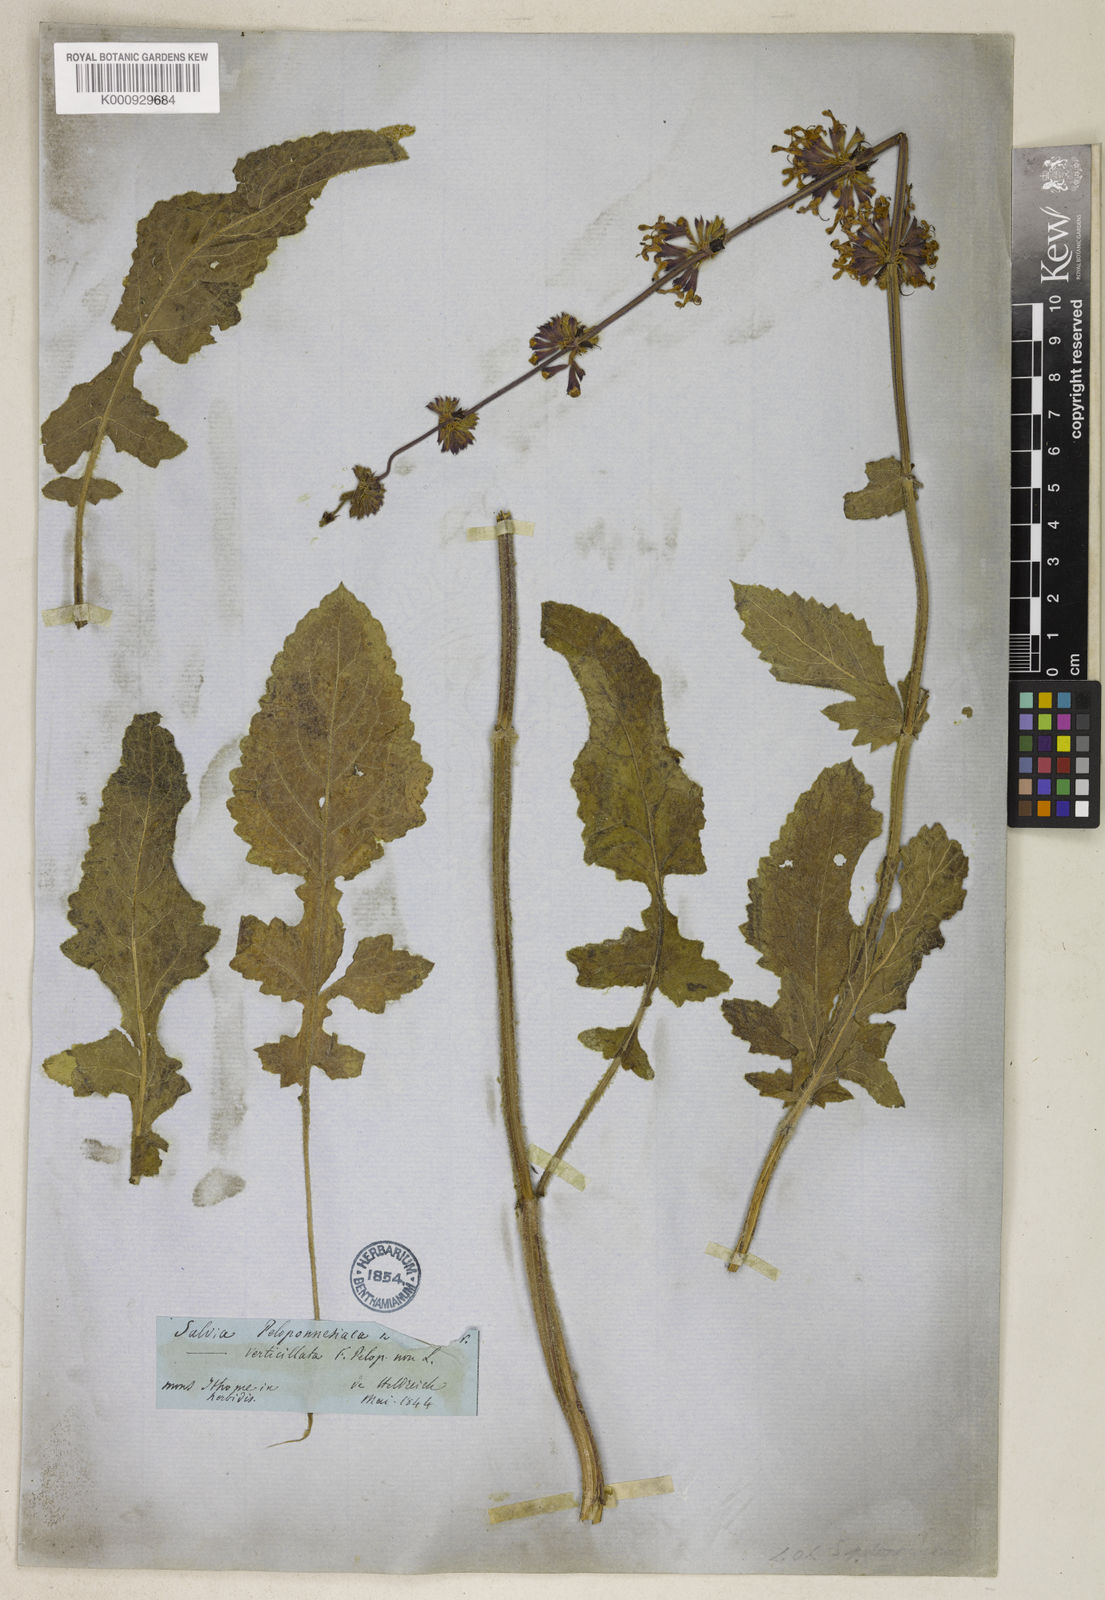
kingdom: Plantae
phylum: Tracheophyta
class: Magnoliopsida
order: Lamiales
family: Lamiaceae
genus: Salvia
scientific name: Salvia verticillata
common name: Whorled clary
